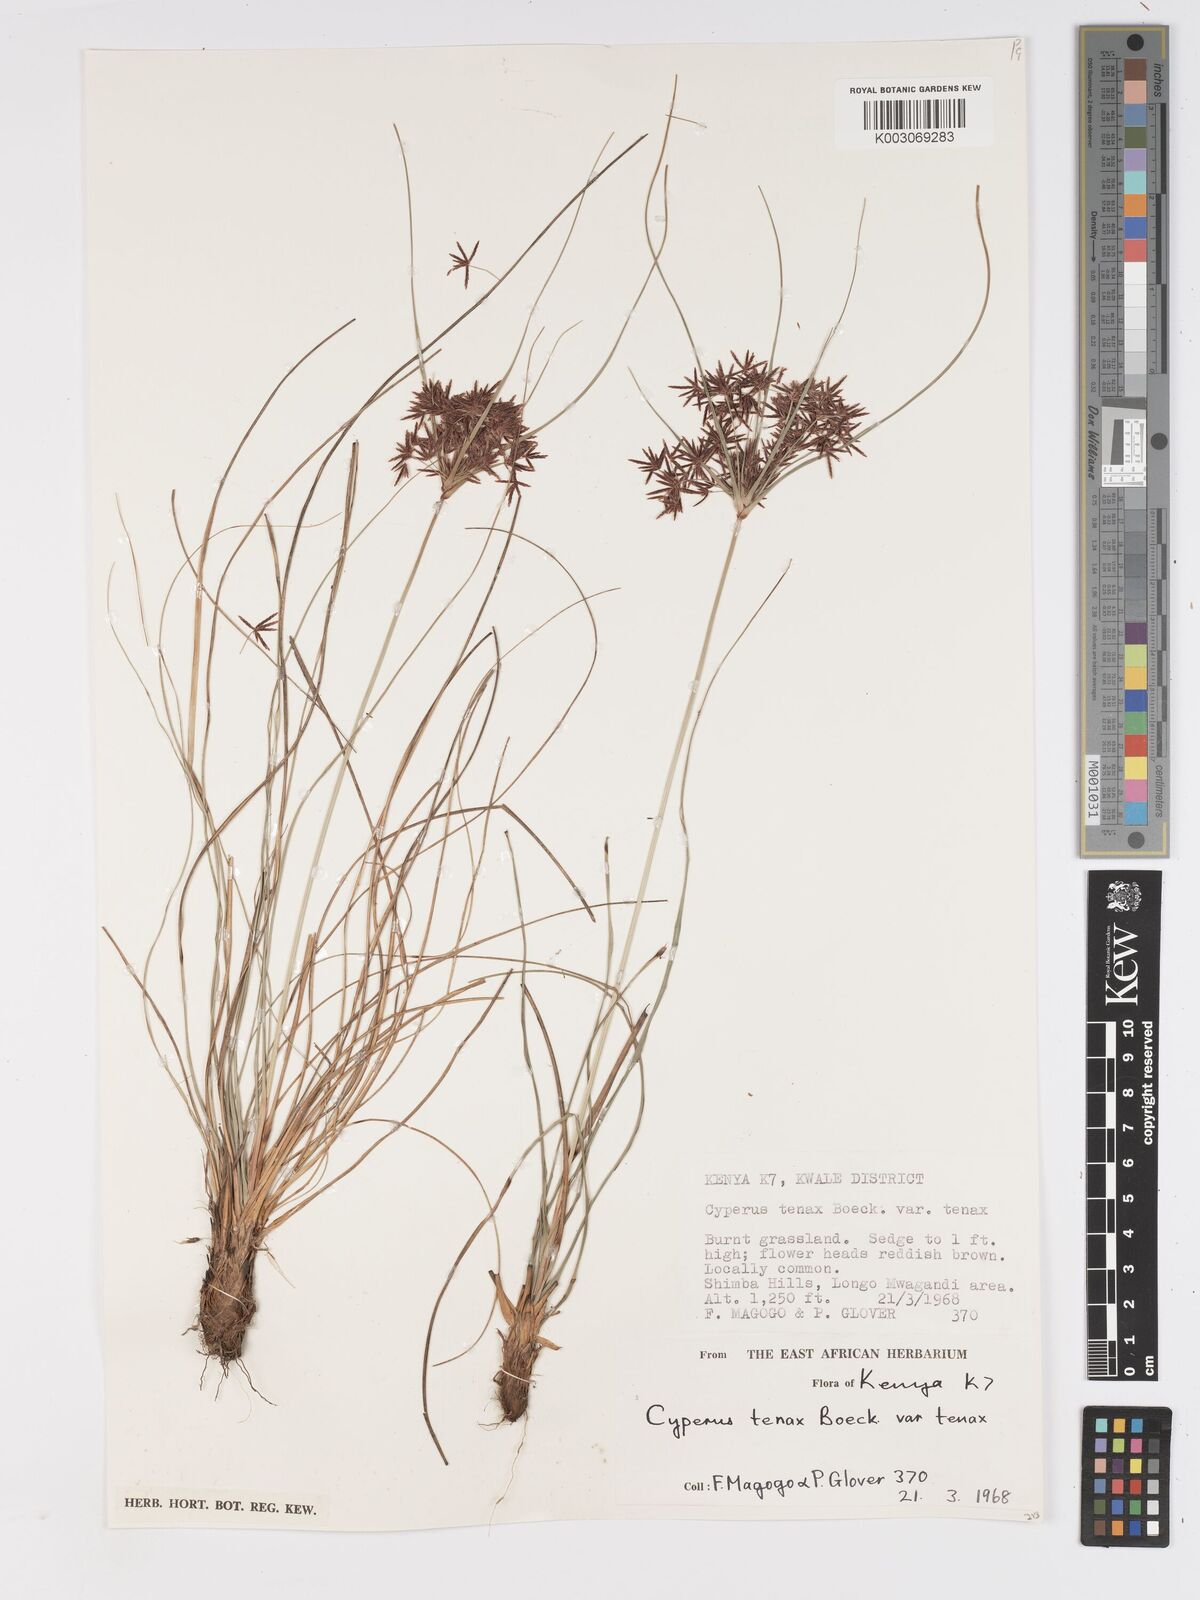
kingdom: Plantae
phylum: Tracheophyta
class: Liliopsida
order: Poales
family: Cyperaceae
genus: Cyperus
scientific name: Cyperus tenax
